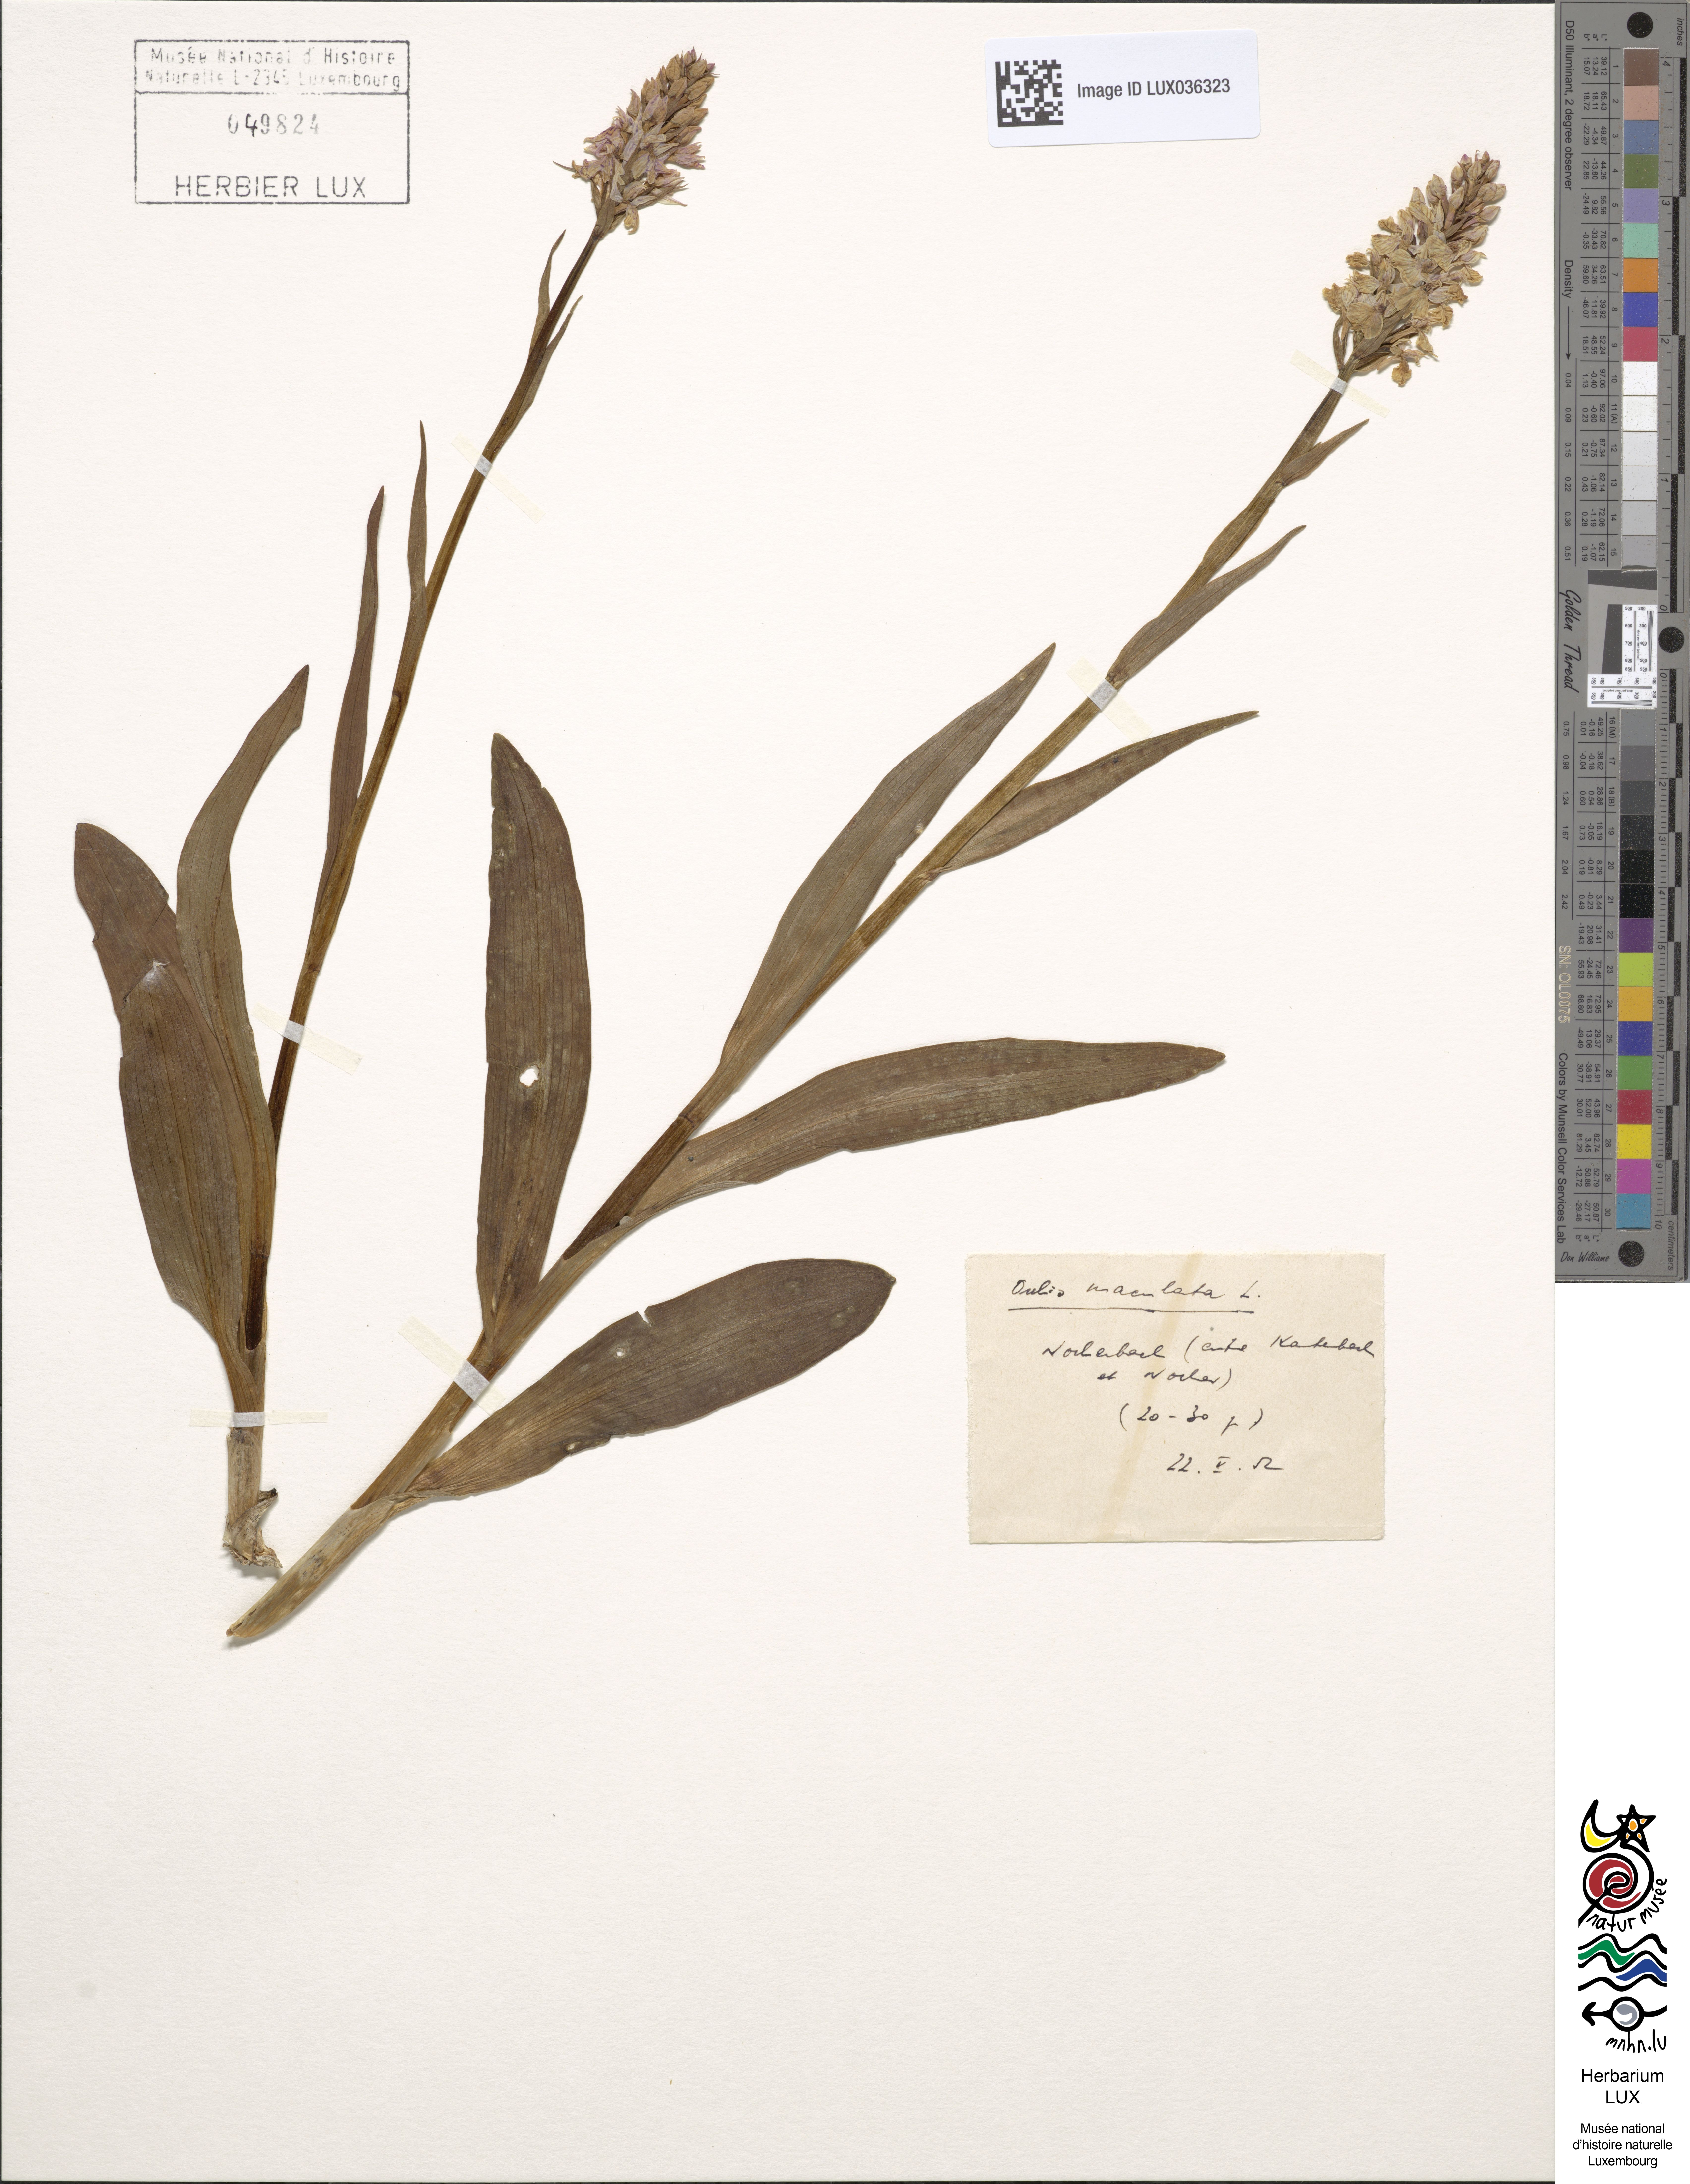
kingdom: Plantae
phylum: Tracheophyta
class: Liliopsida
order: Asparagales
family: Orchidaceae
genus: Dactylorhiza
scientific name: Dactylorhiza maculata
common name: Heath spotted-orchid
